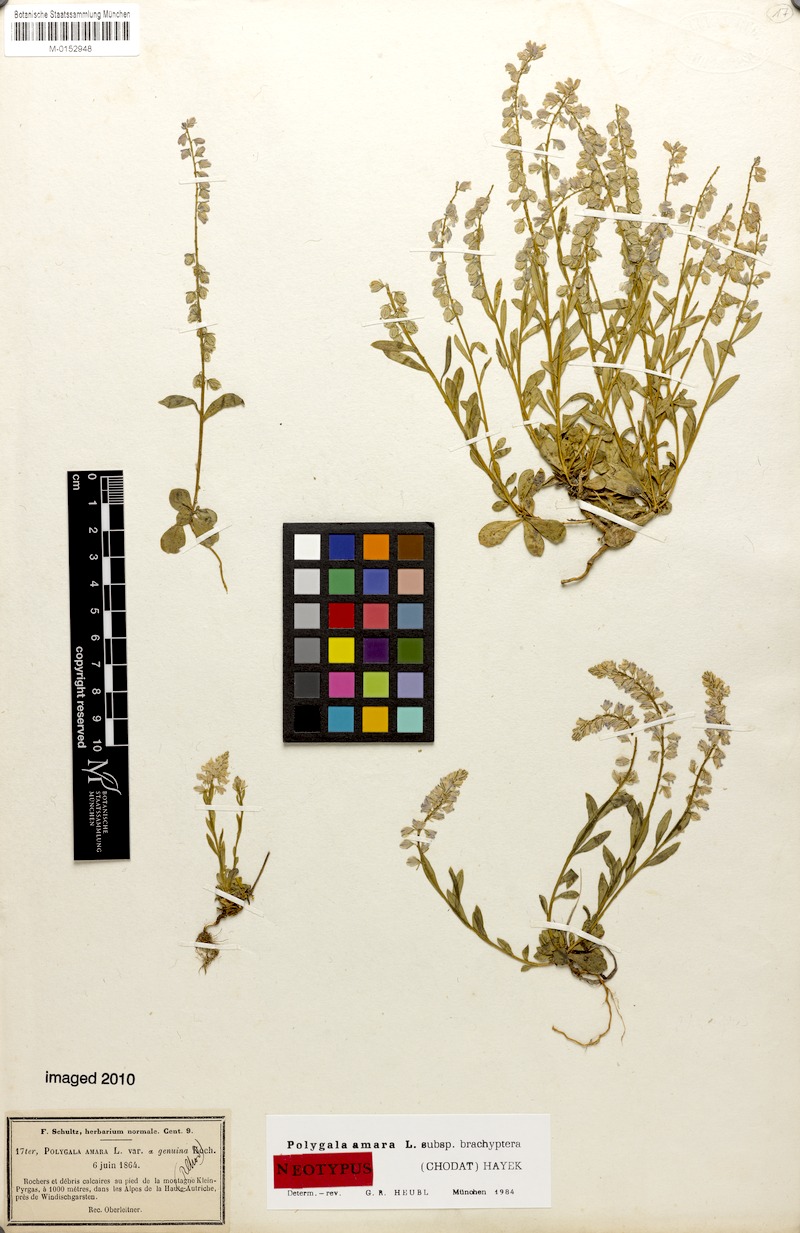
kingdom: Plantae
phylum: Tracheophyta
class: Magnoliopsida
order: Fabales
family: Polygalaceae
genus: Polygala
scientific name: Polygala amara
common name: Milkwort
